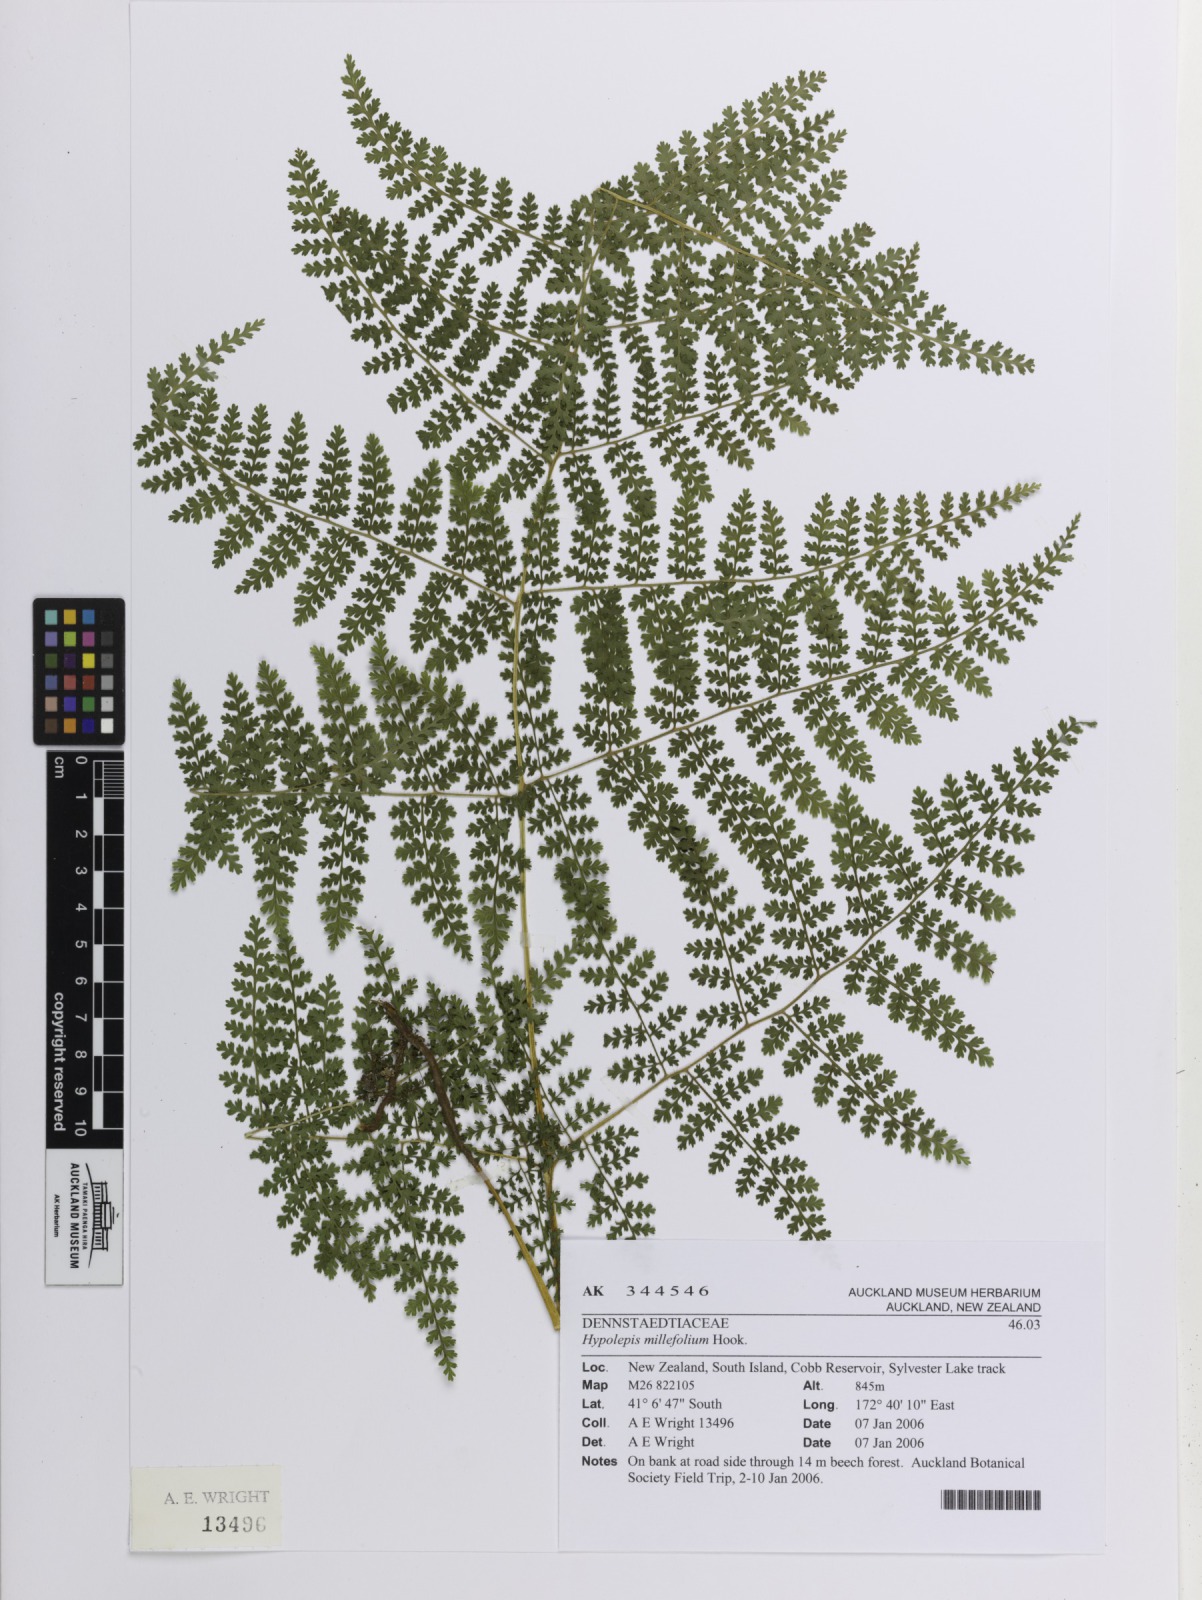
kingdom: Plantae
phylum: Tracheophyta
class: Polypodiopsida
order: Polypodiales
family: Dennstaedtiaceae
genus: Hypolepis
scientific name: Hypolepis millefolium
